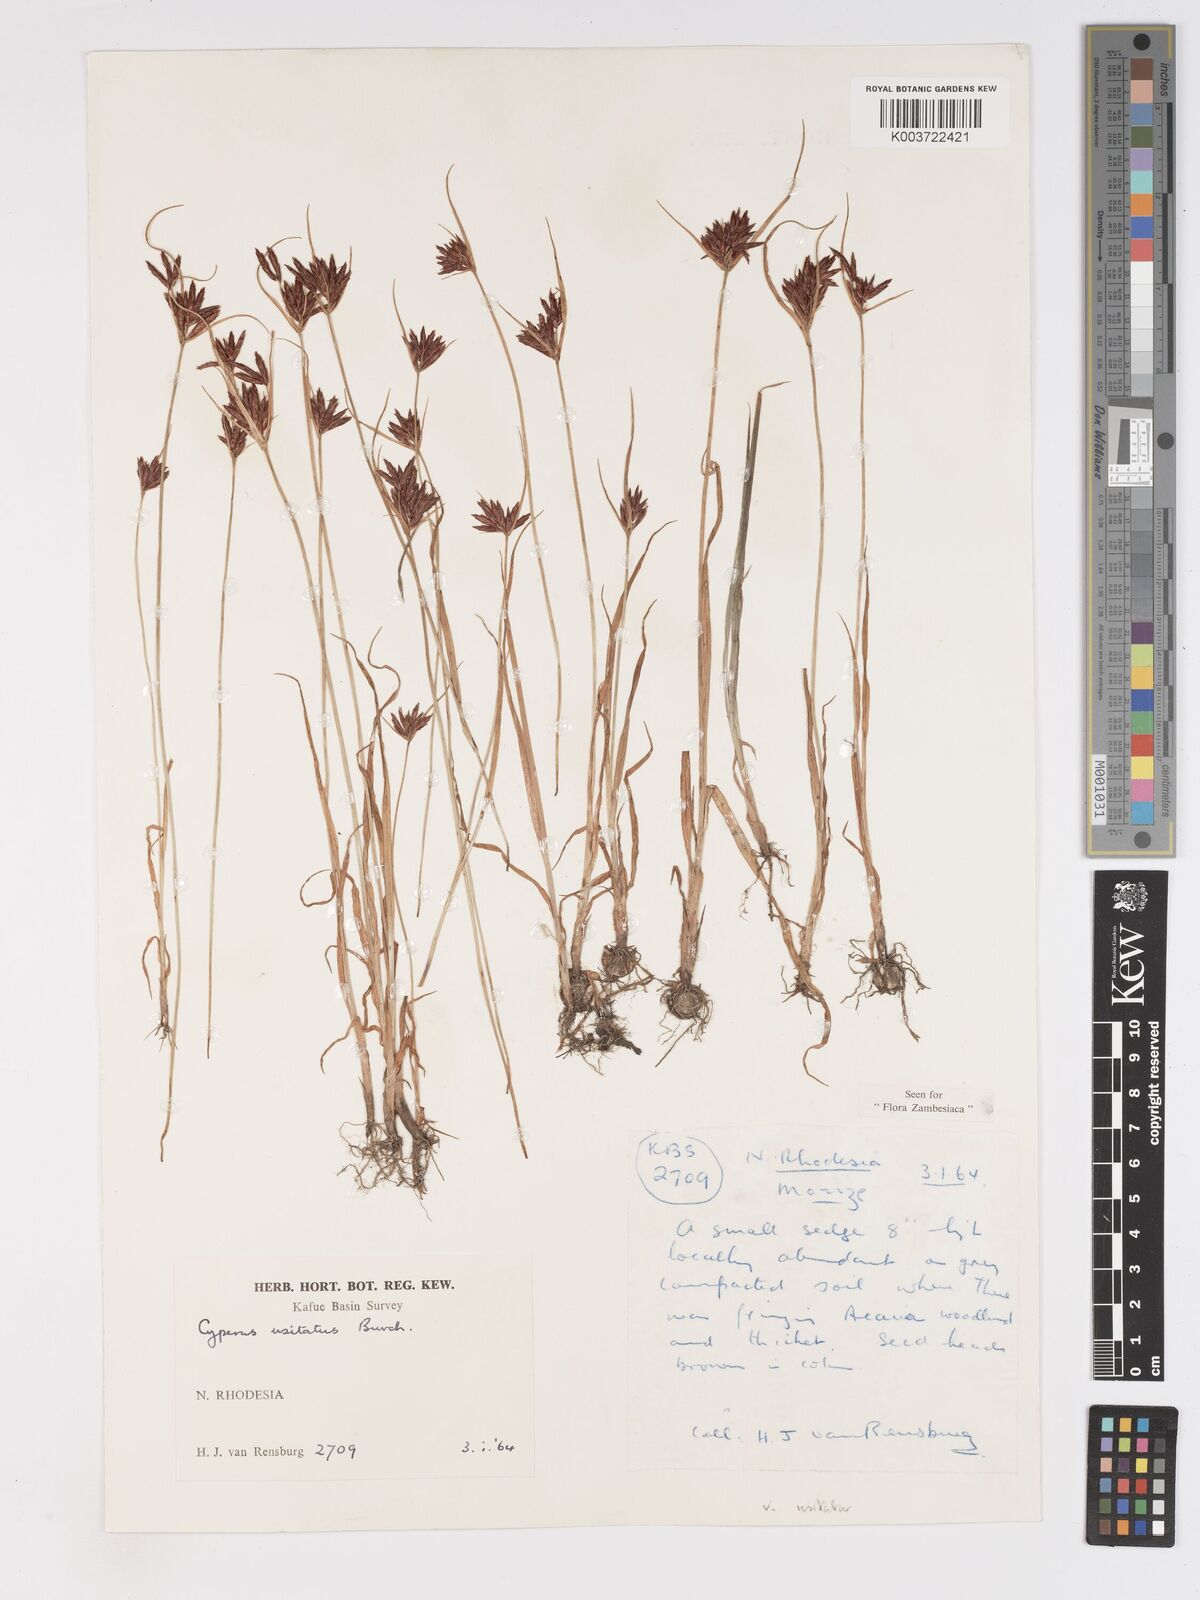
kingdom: Plantae
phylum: Tracheophyta
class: Liliopsida
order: Poales
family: Cyperaceae
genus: Cyperus
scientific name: Cyperus usitatus
